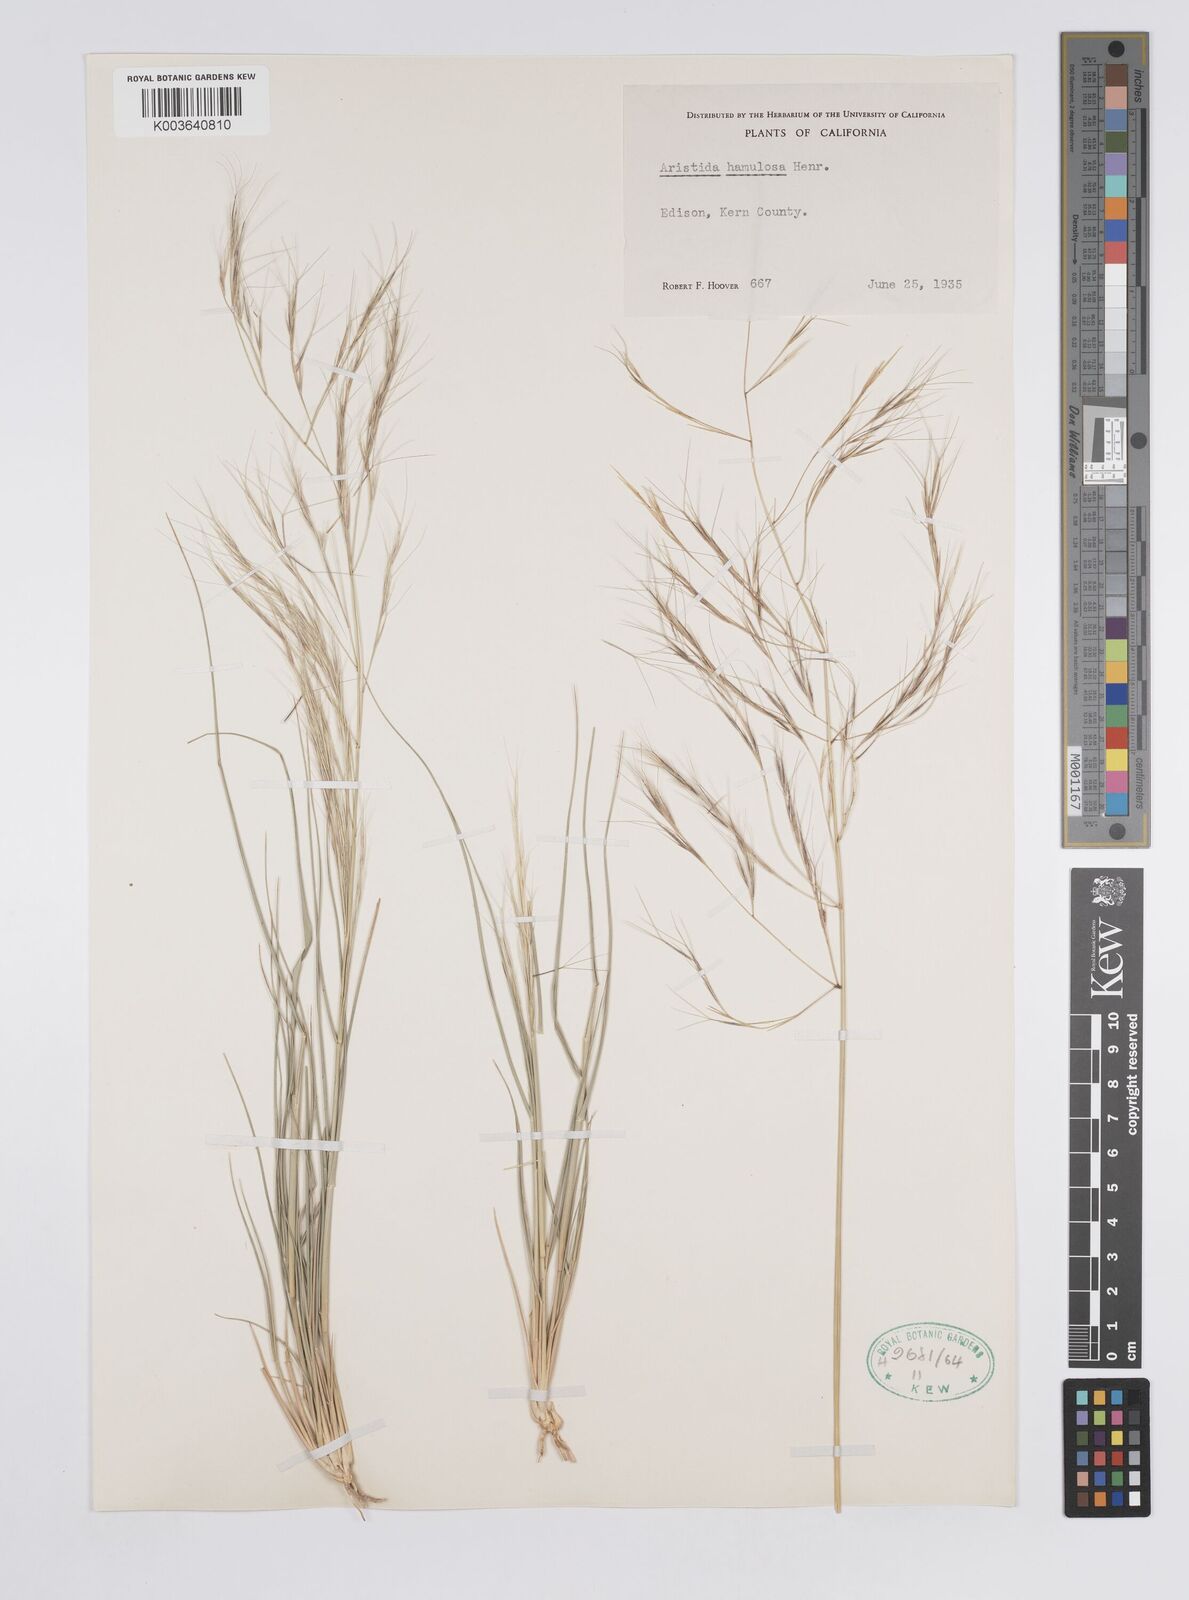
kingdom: Plantae
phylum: Tracheophyta
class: Liliopsida
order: Poales
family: Poaceae
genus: Aristida
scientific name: Aristida hamulosa
